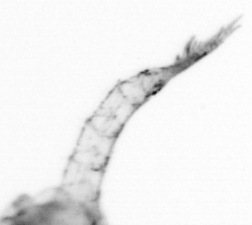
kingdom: Animalia
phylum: Arthropoda
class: Copepoda
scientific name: Copepoda
